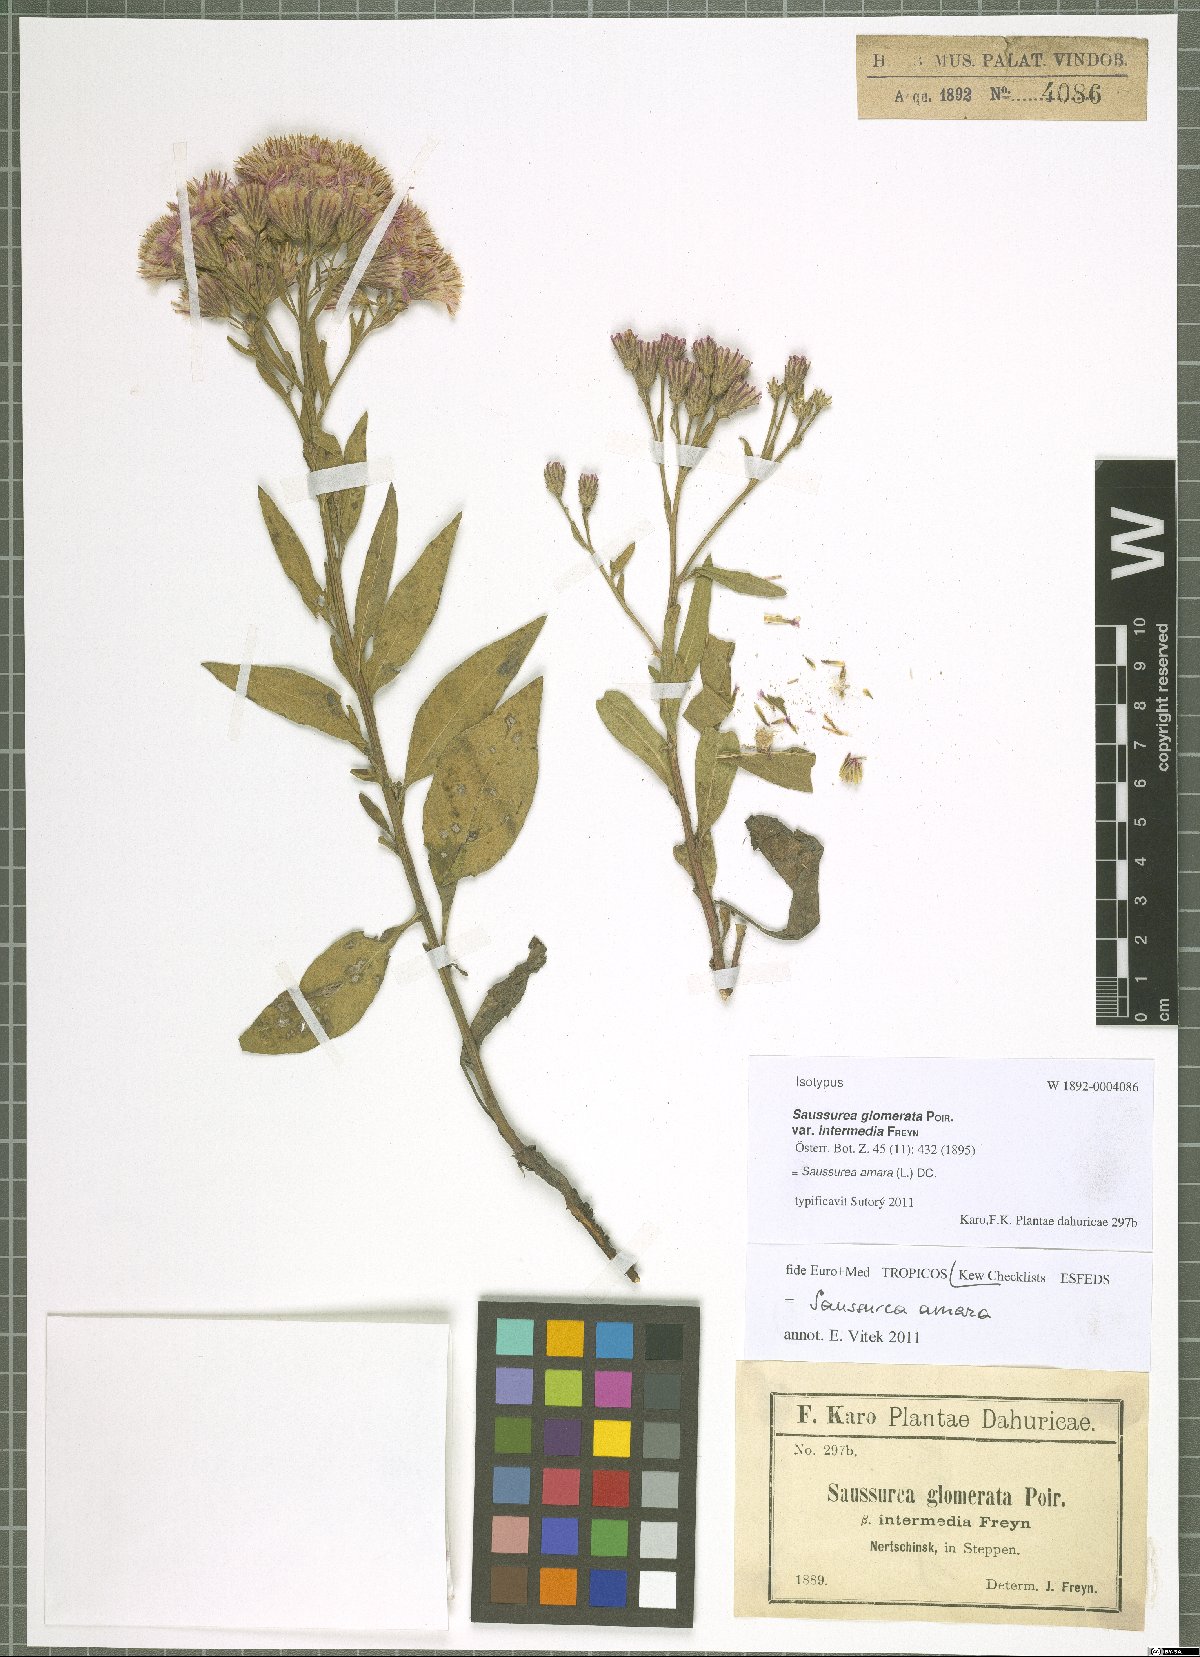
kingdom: Plantae
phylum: Tracheophyta
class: Magnoliopsida
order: Asterales
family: Asteraceae
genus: Saussurea
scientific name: Saussurea amara
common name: Alberta sawwort
